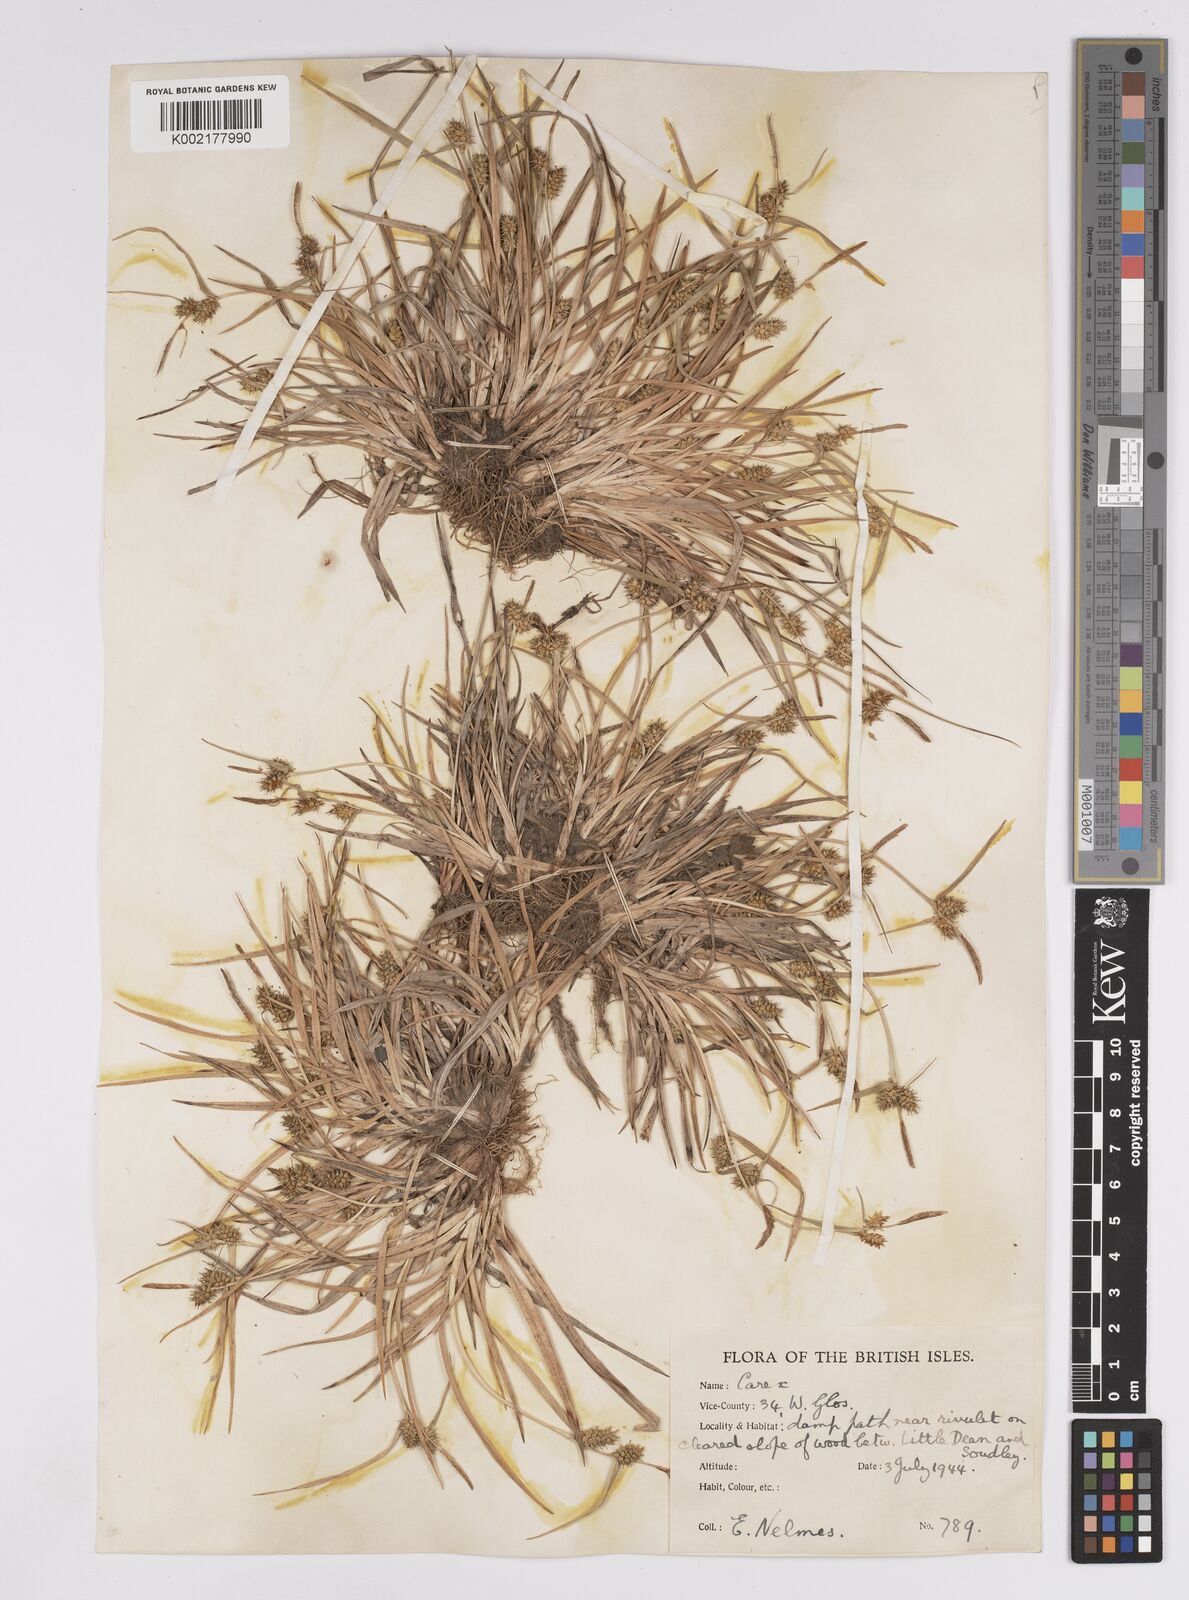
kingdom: Plantae
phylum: Tracheophyta
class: Liliopsida
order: Poales
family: Cyperaceae
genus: Carex
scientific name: Carex demissa
